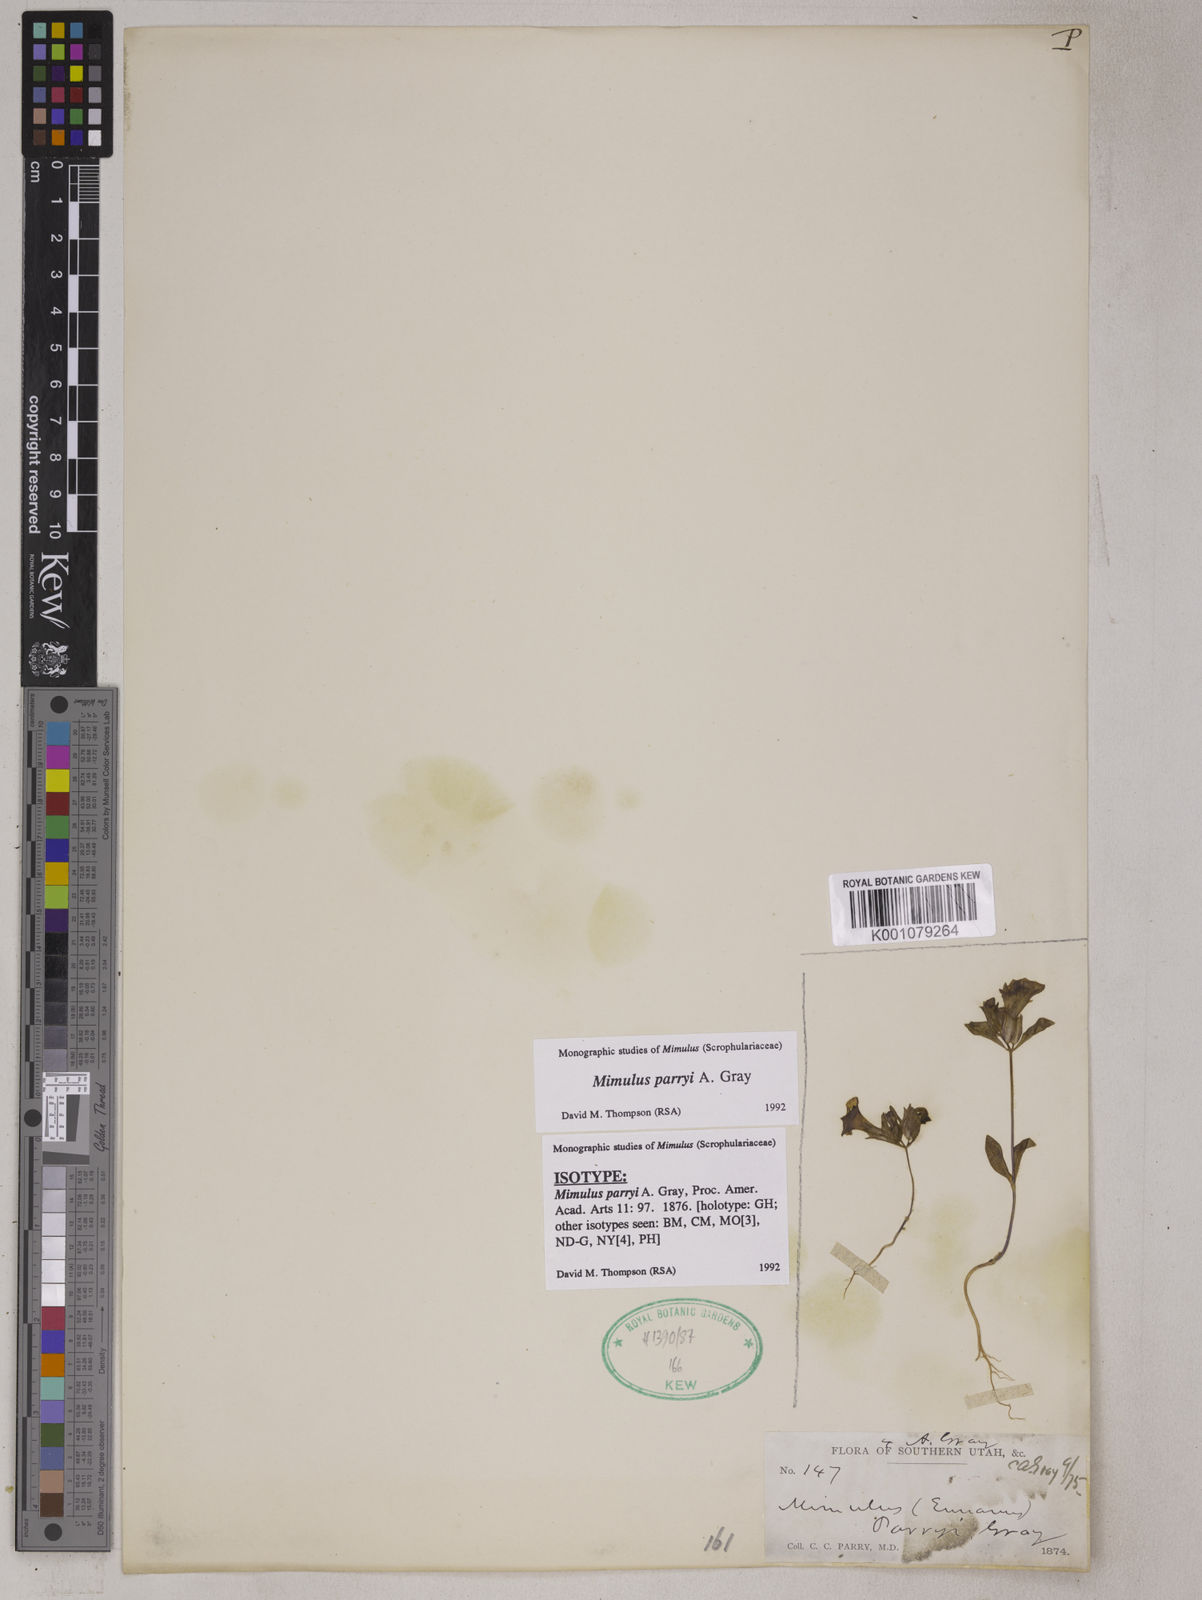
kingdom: Plantae
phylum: Tracheophyta
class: Magnoliopsida
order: Lamiales
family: Phrymaceae
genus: Diplacus
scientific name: Diplacus parryi
